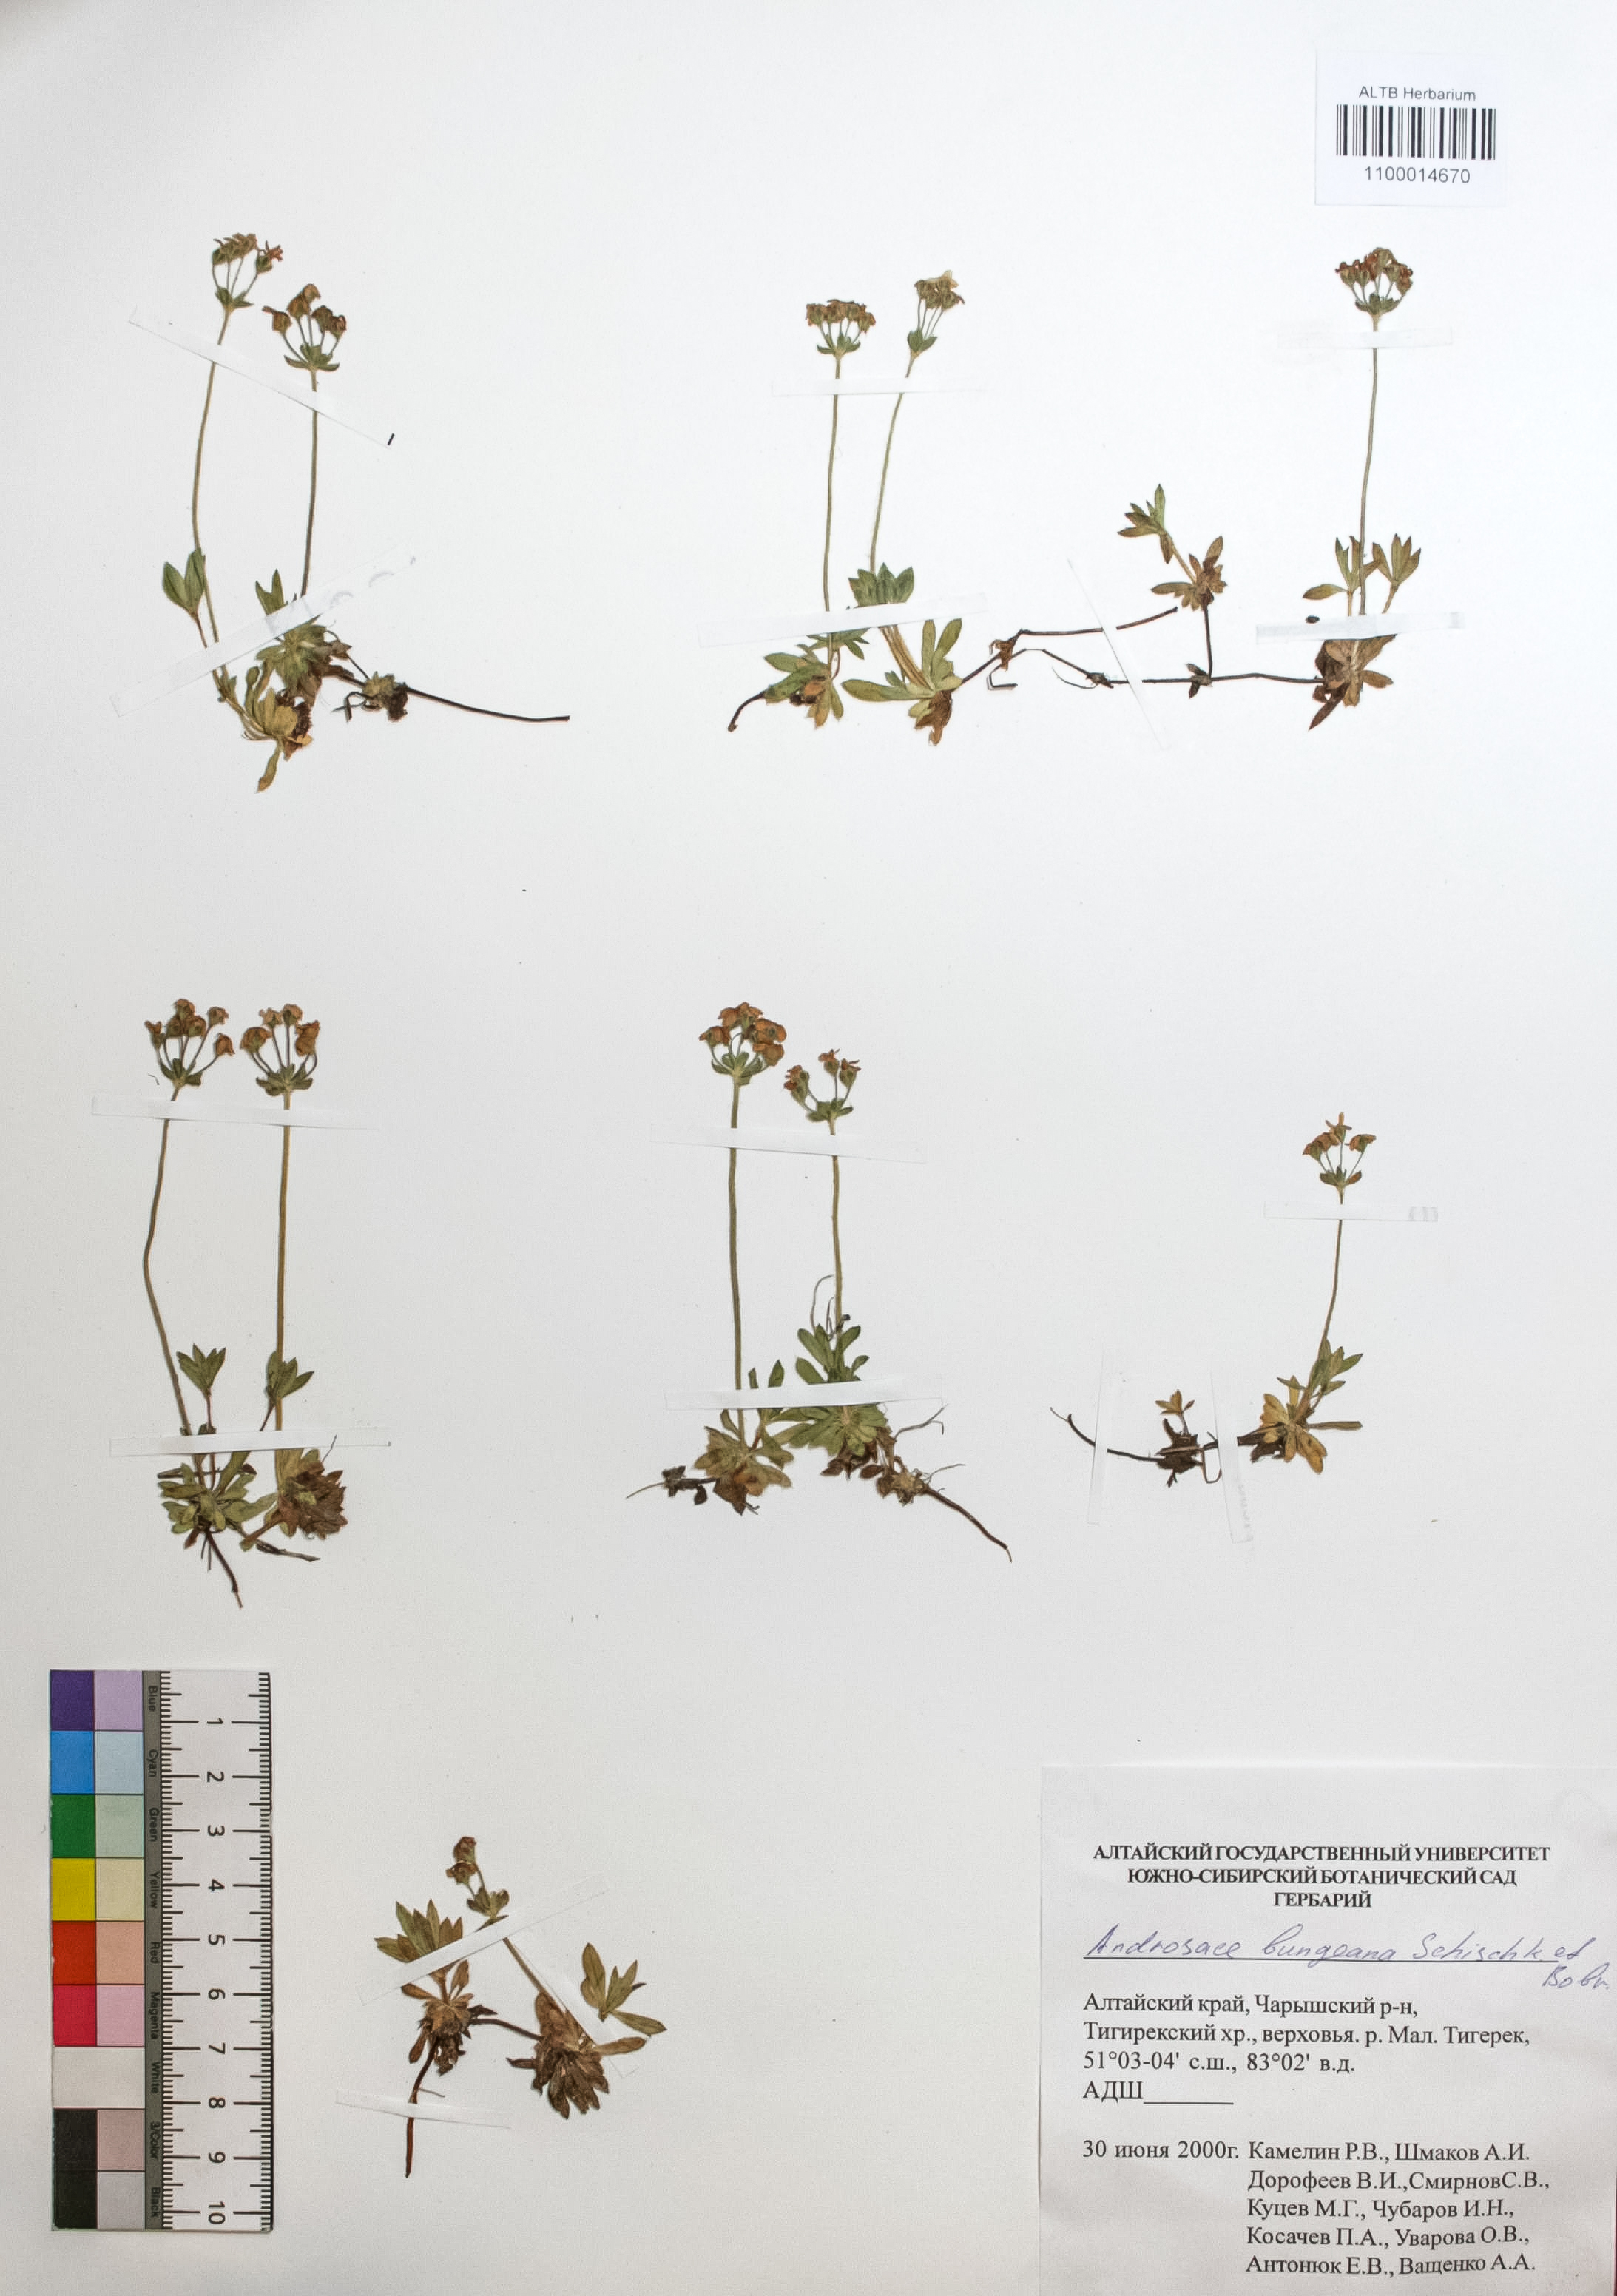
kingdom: Plantae
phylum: Tracheophyta
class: Magnoliopsida
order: Ericales
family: Primulaceae
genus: Androsace
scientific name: Androsace bungeana
